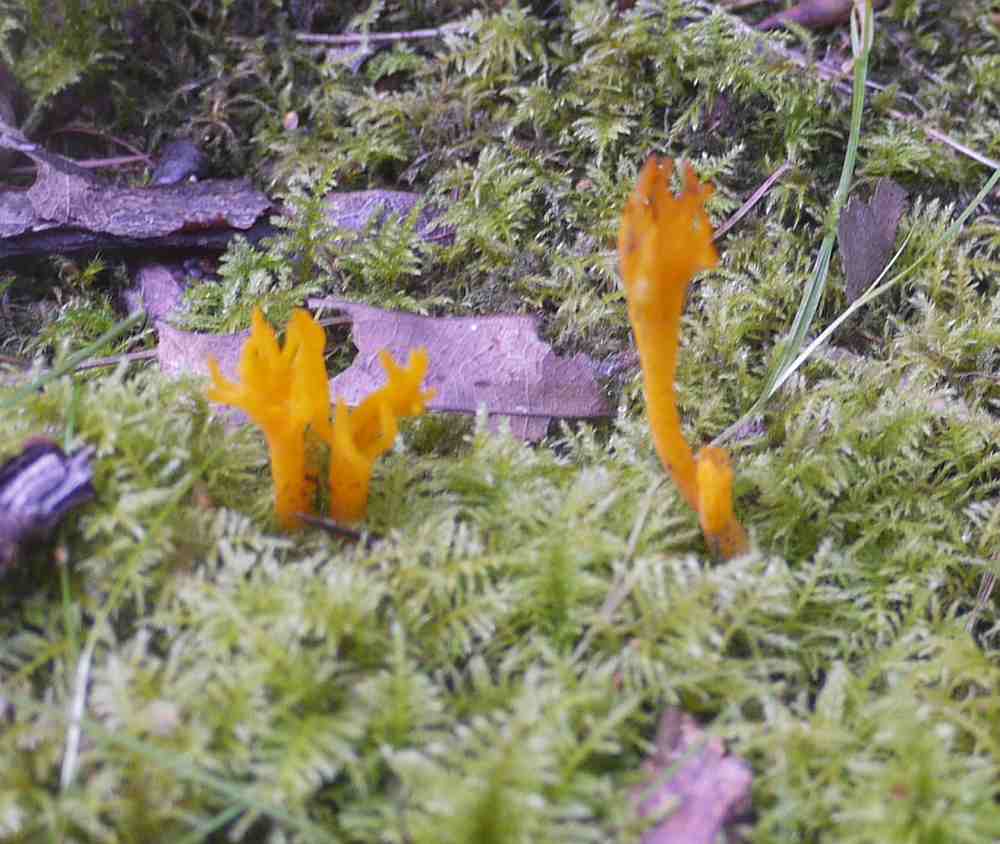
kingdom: Fungi
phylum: Basidiomycota
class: Dacrymycetes
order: Dacrymycetales
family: Dacrymycetaceae
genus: Calocera
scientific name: Calocera viscosa
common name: almindelig guldgaffel
